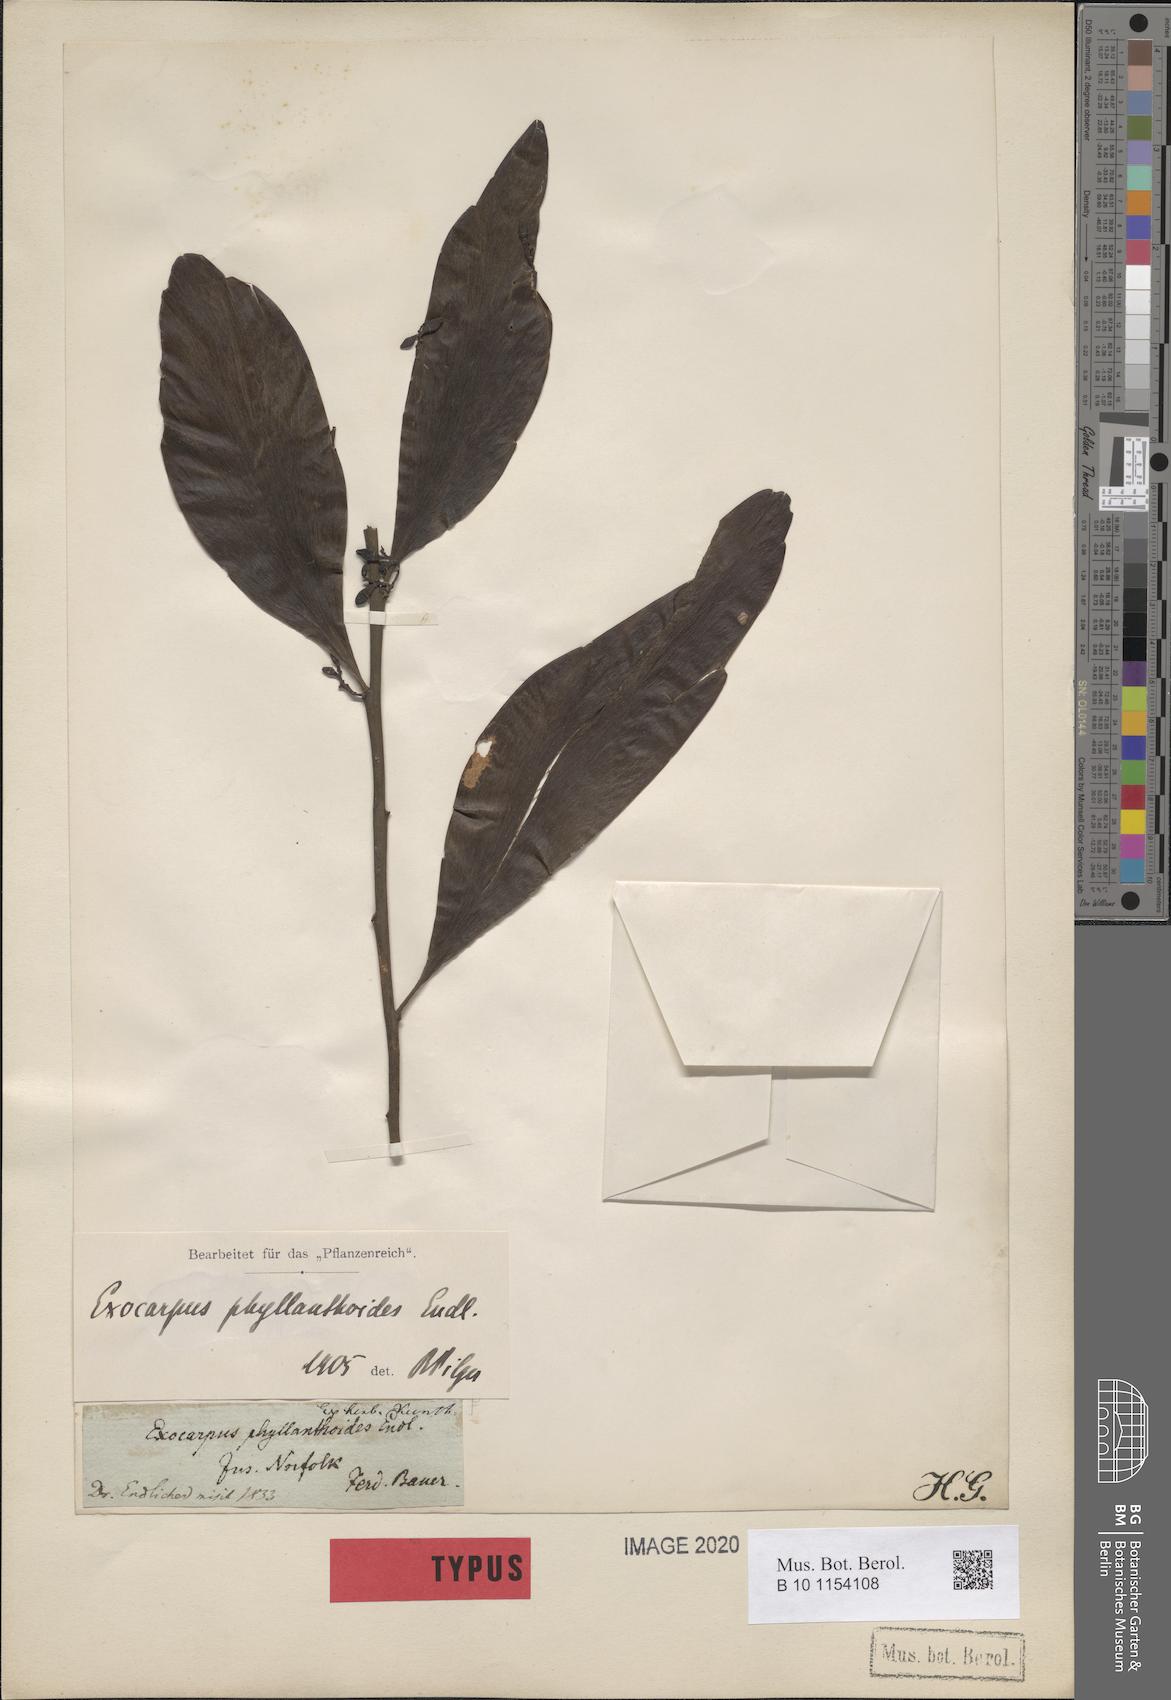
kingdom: Plantae
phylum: Tracheophyta
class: Magnoliopsida
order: Santalales
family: Santalaceae
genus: Exocarpos
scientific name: Exocarpos phyllanthoides
